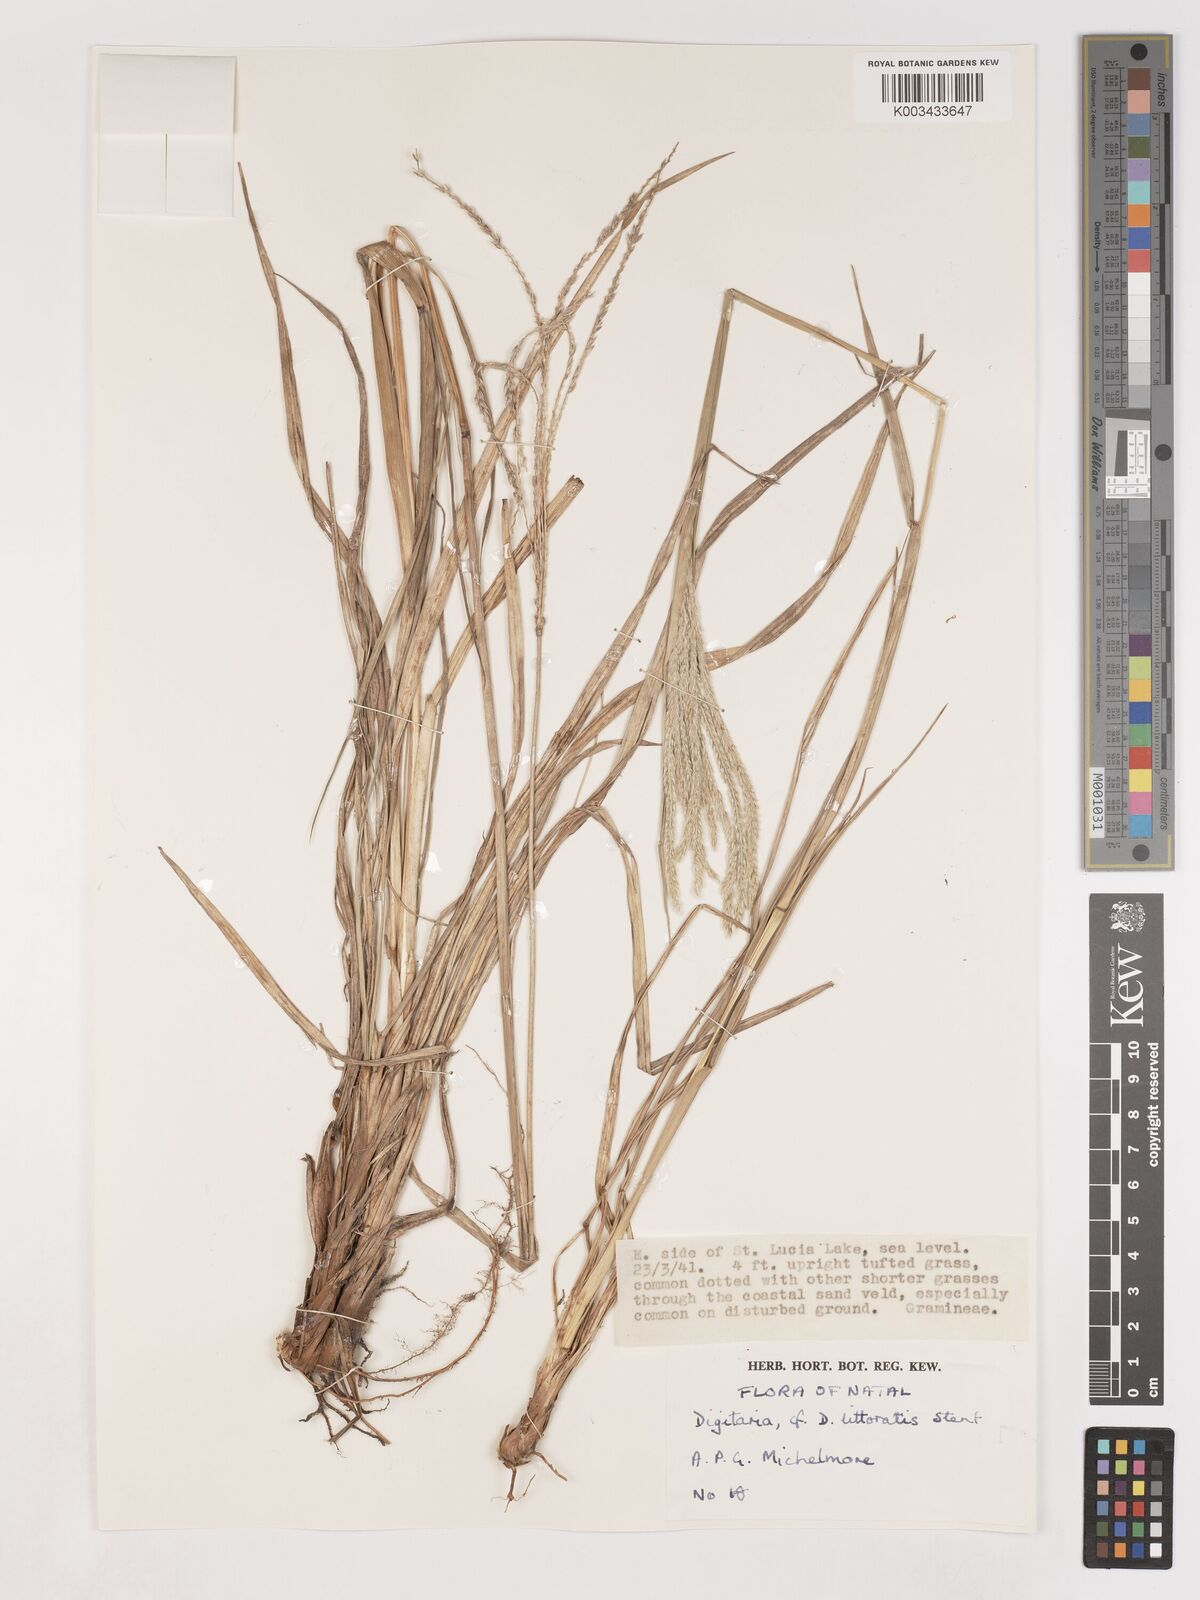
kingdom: Plantae
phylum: Tracheophyta
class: Liliopsida
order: Poales
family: Poaceae
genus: Digitaria
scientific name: Digitaria natalensis
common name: Coast finger grass
